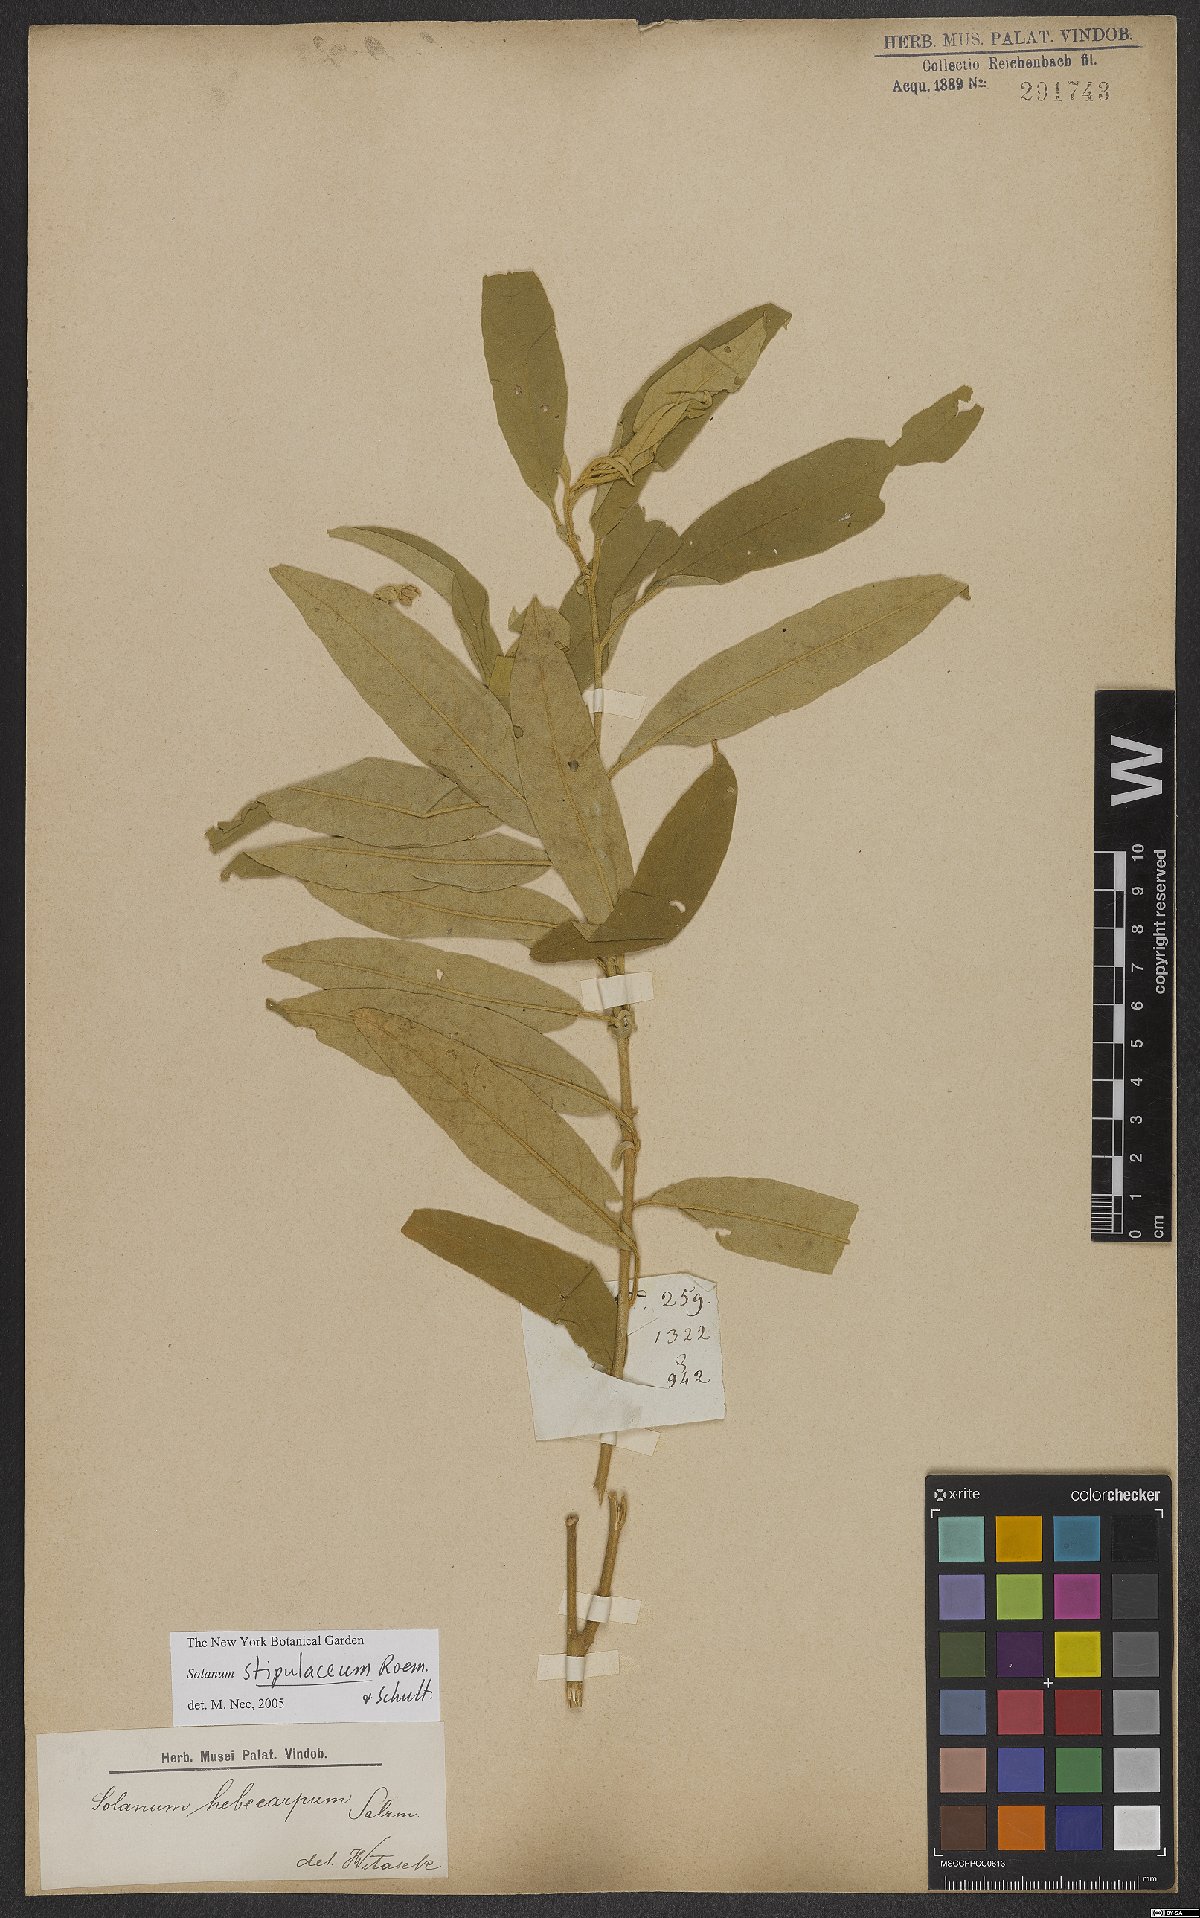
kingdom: Plantae
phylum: Tracheophyta
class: Magnoliopsida
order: Solanales
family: Solanaceae
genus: Solanum
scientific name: Solanum stipulaceum
